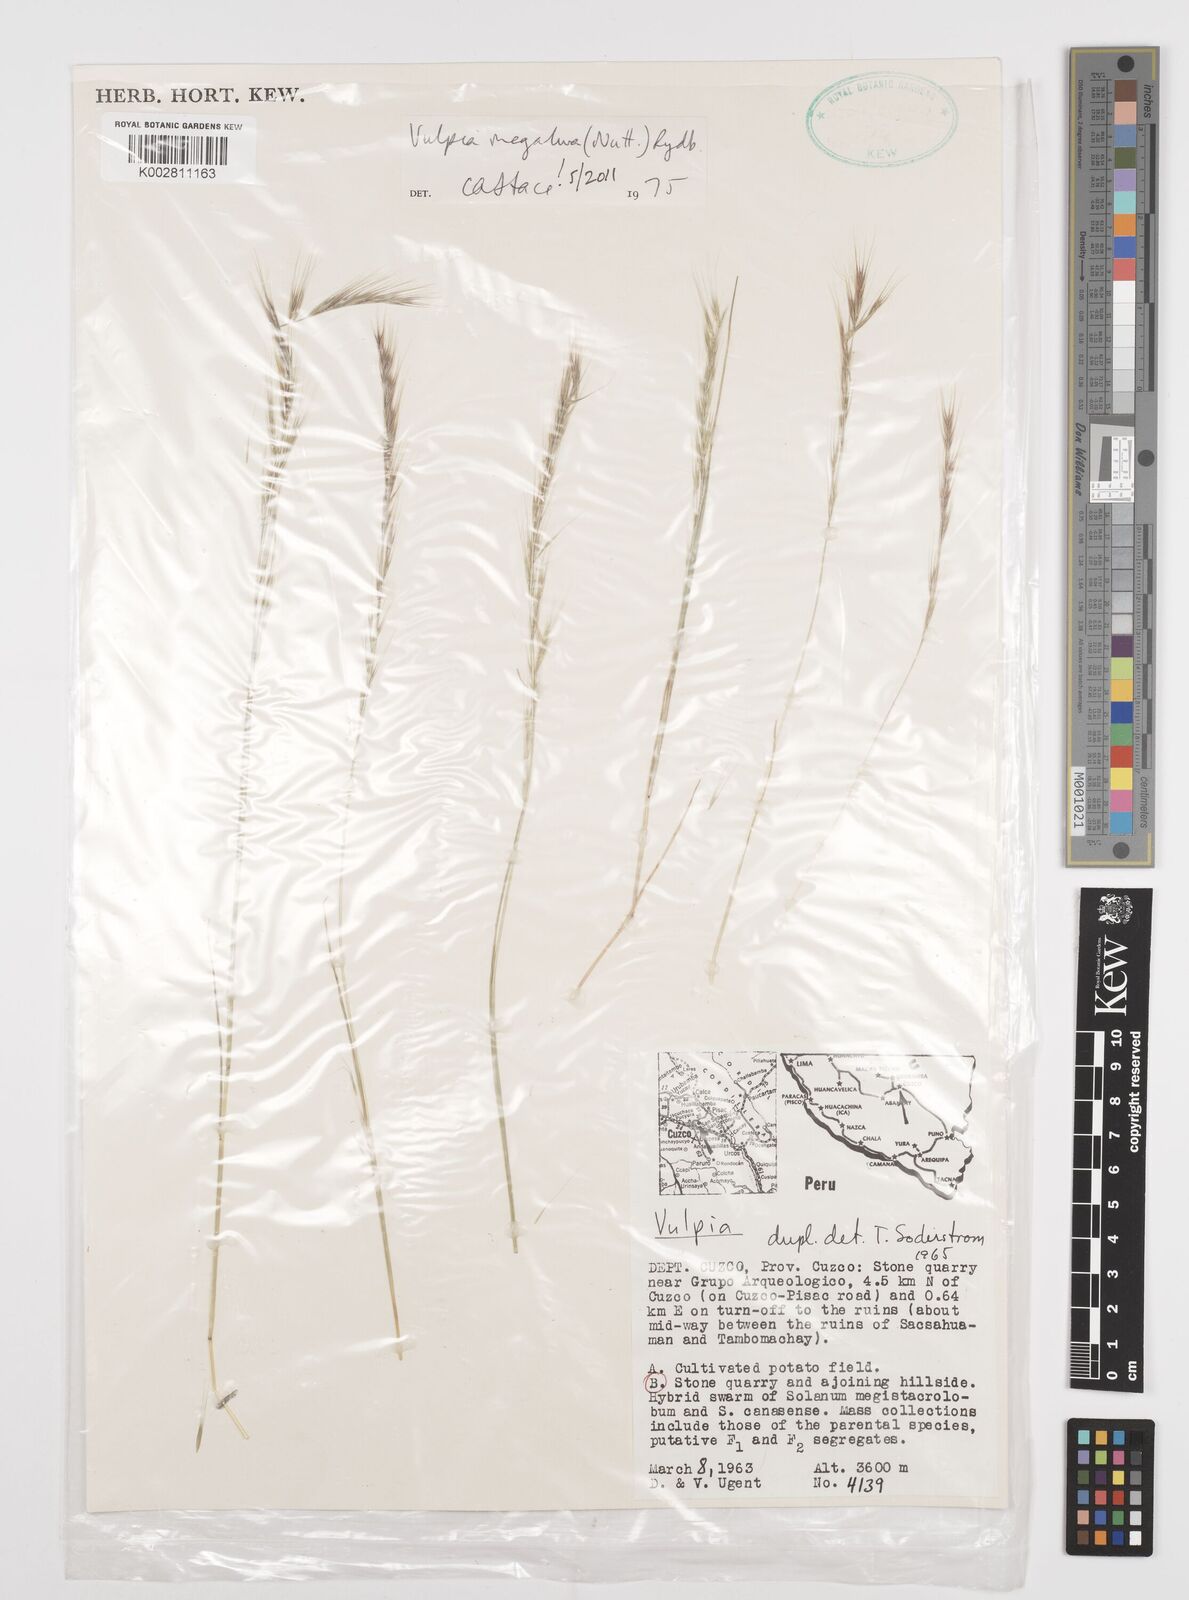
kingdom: Plantae
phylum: Tracheophyta
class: Liliopsida
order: Poales
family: Poaceae
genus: Festuca
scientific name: Festuca myuros
